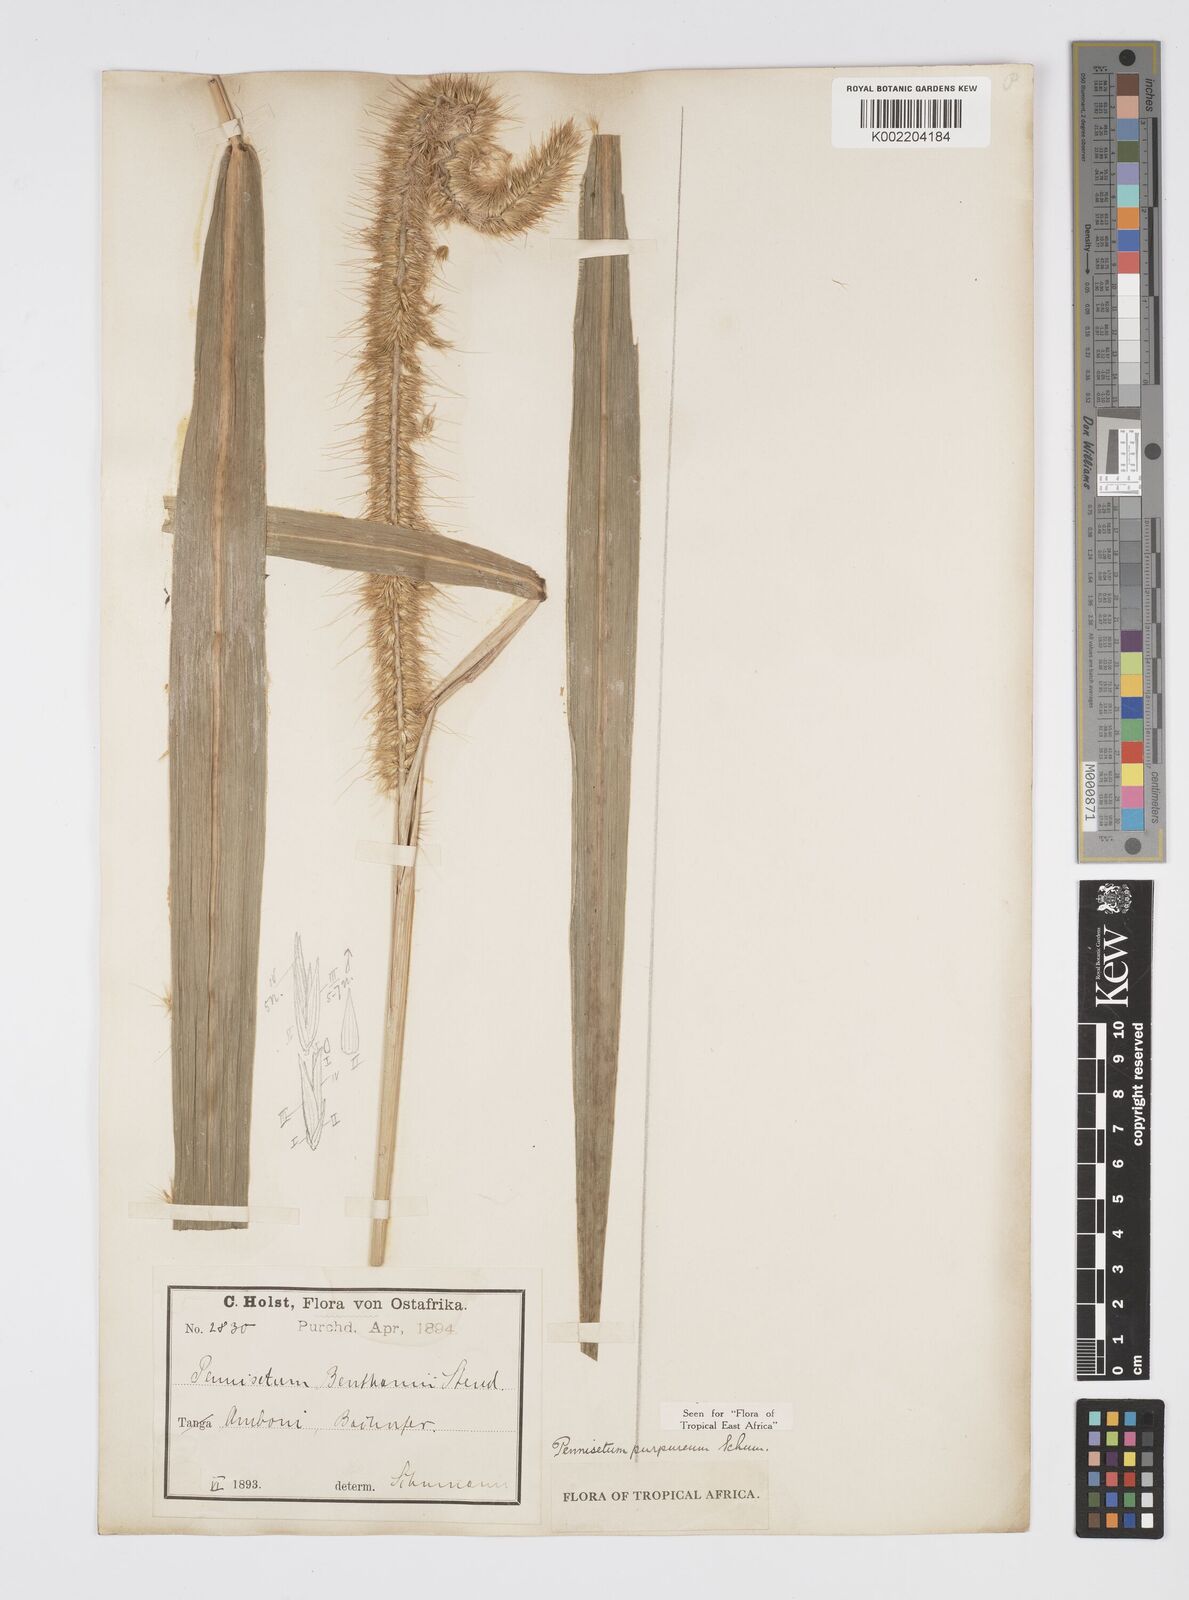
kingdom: Plantae
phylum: Tracheophyta
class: Liliopsida
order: Poales
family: Poaceae
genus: Cenchrus
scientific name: Cenchrus purpureus
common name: Elephant grass
